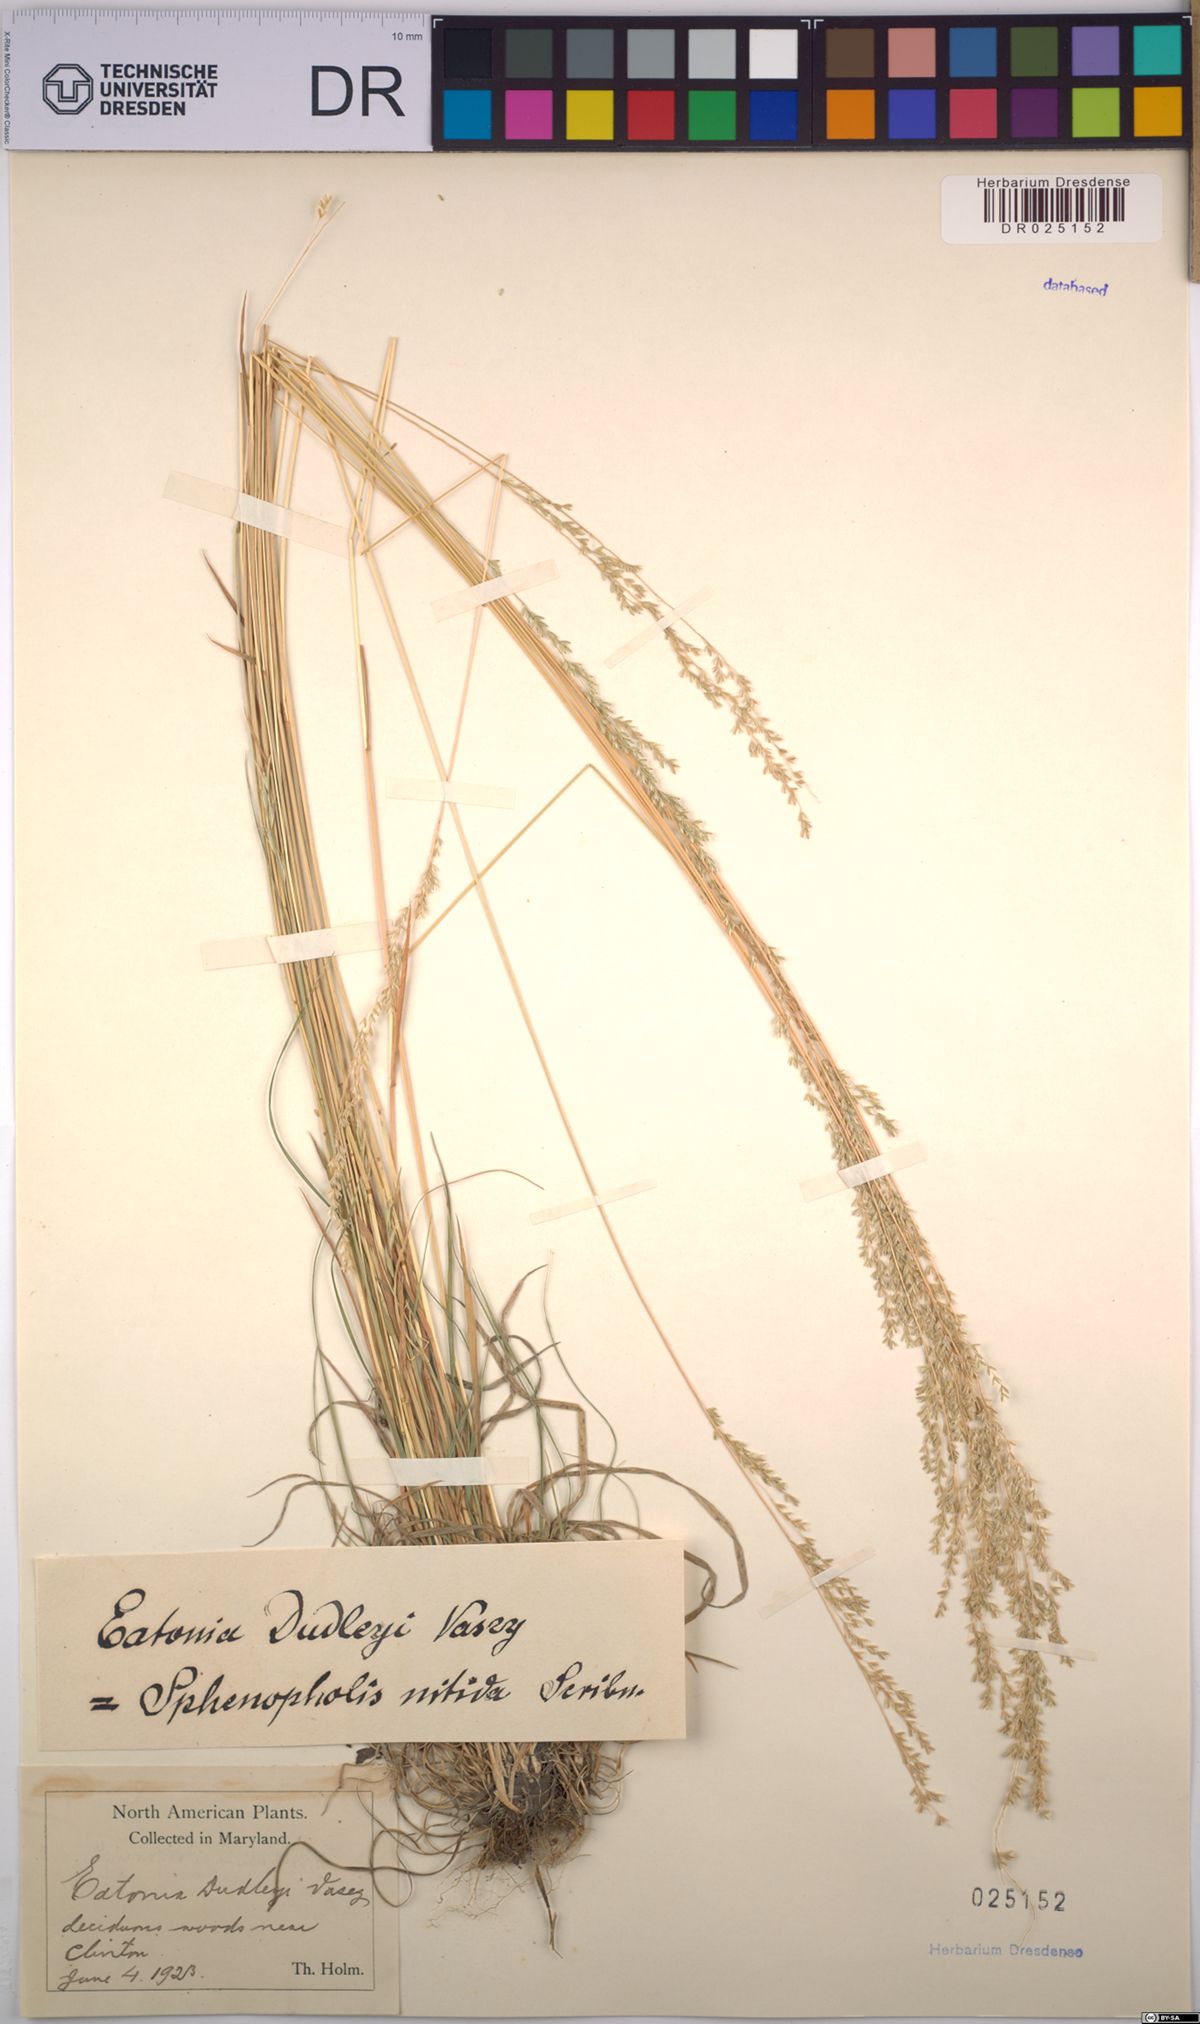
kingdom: Plantae
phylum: Tracheophyta
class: Liliopsida
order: Poales
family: Poaceae
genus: Sphenopholis
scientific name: Sphenopholis nitida
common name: Shiny wedgegrass
